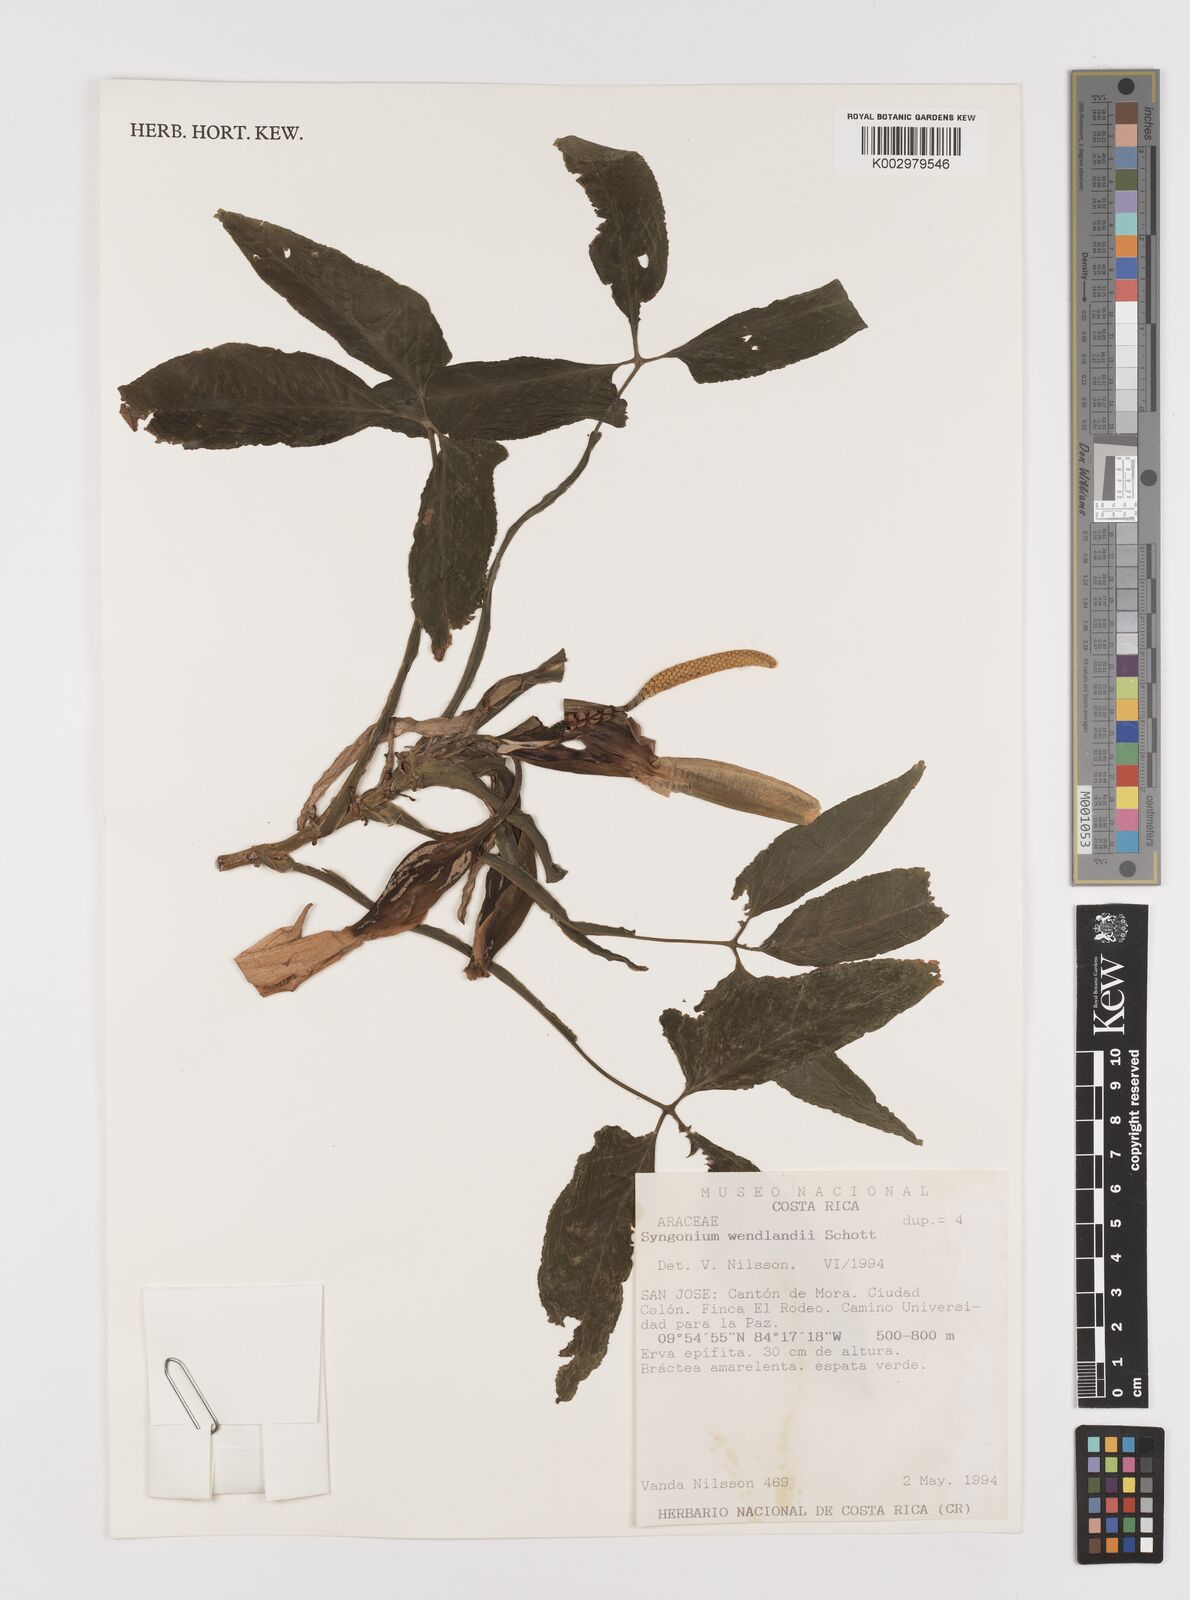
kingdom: Plantae
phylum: Tracheophyta
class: Liliopsida
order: Alismatales
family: Araceae
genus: Syngonium
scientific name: Syngonium wendlandii
